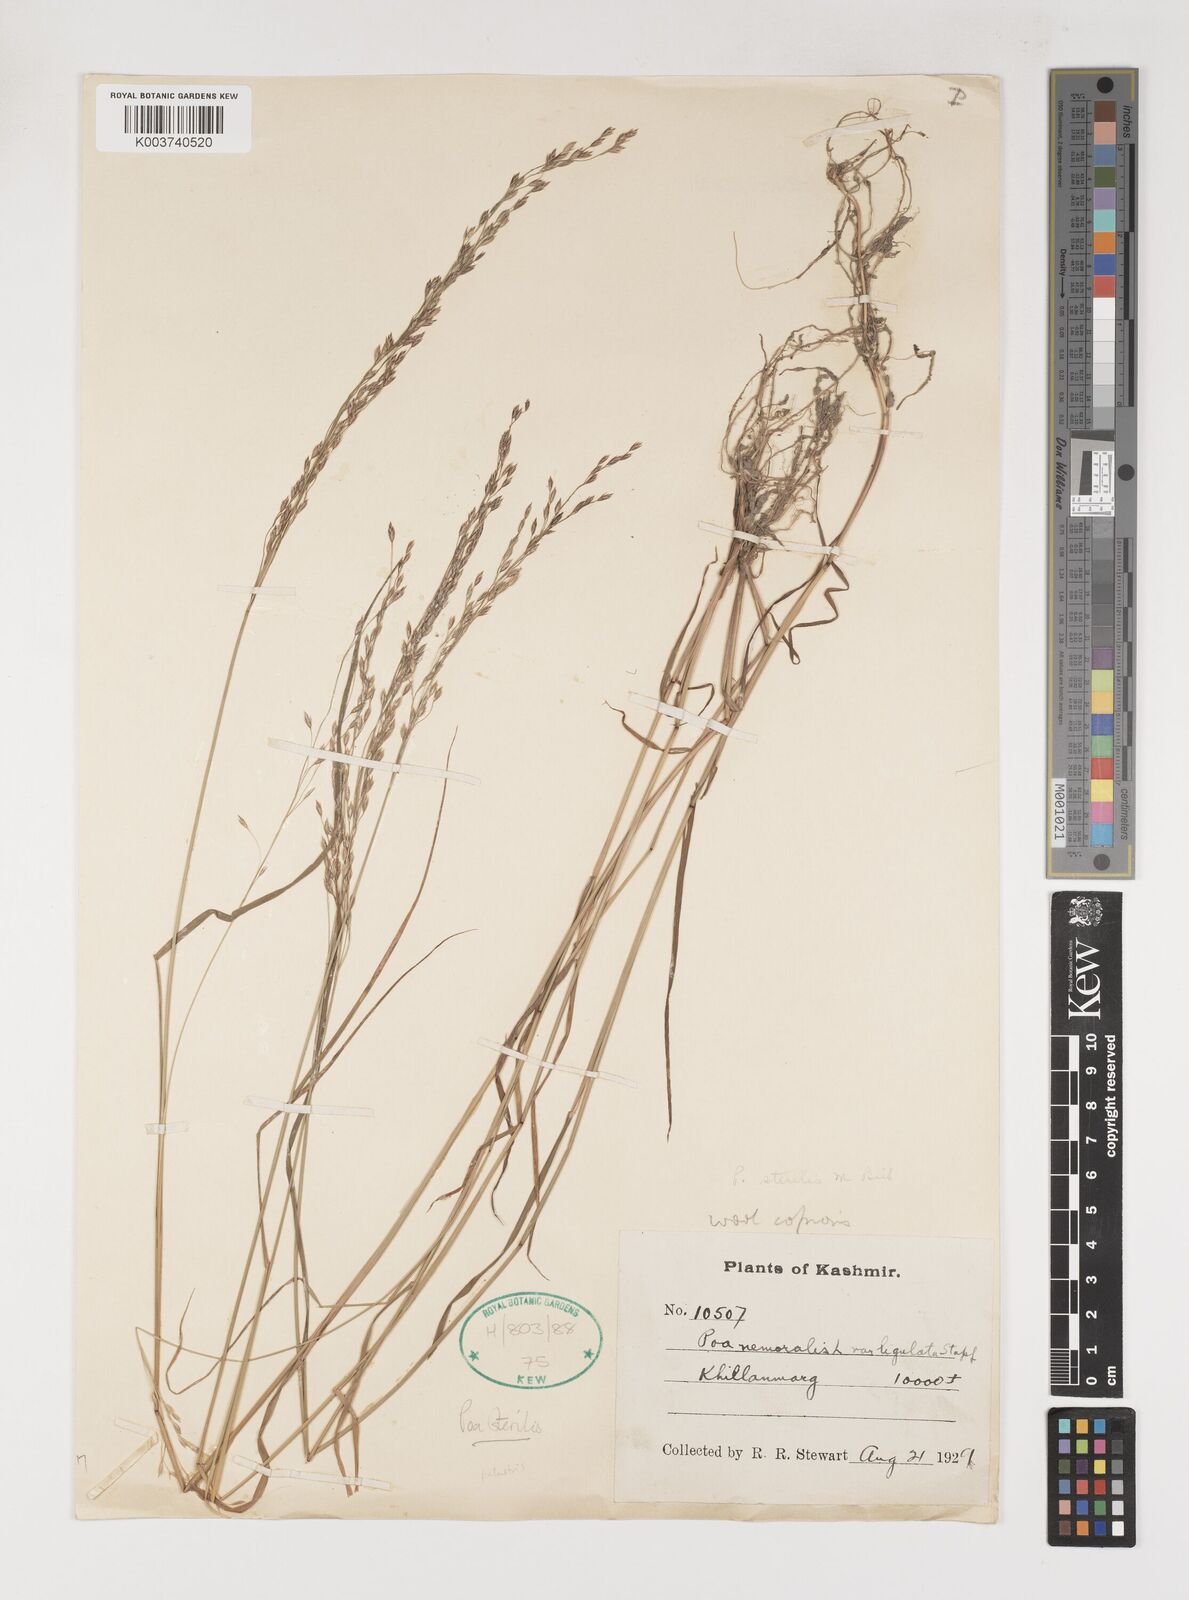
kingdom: Plantae
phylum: Tracheophyta
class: Liliopsida
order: Poales
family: Poaceae
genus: Poa
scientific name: Poa sterilis
